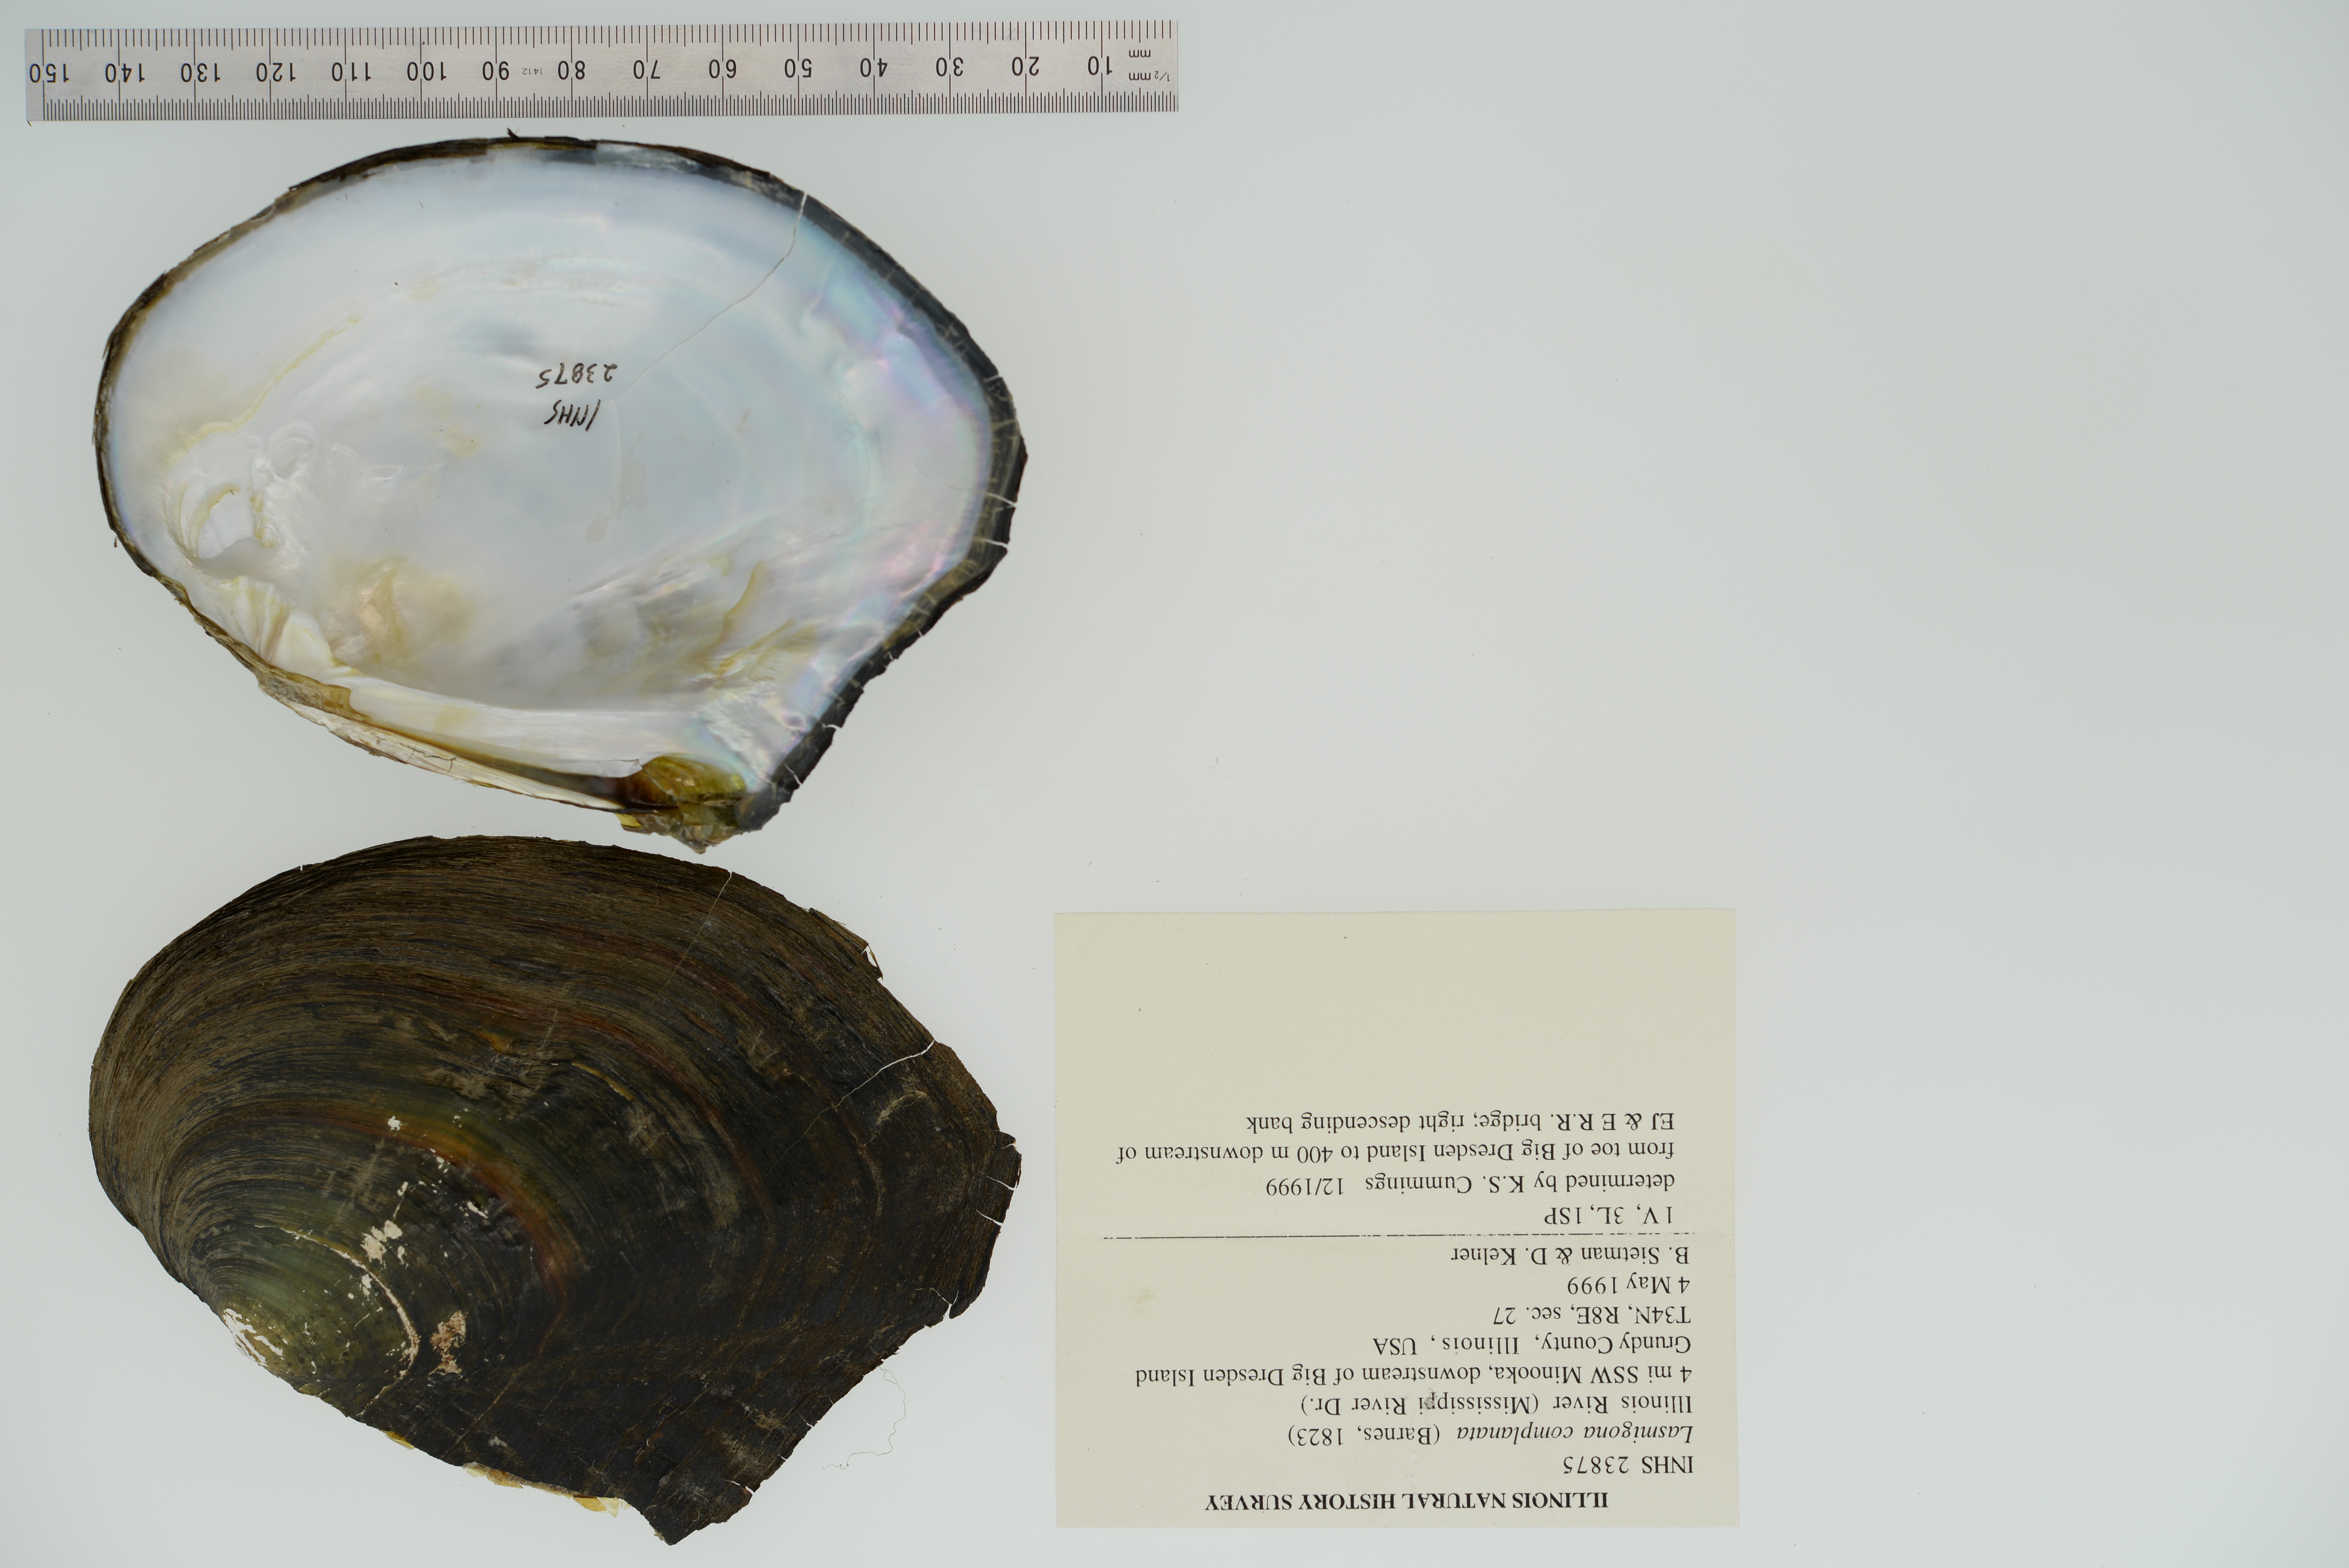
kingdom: Animalia
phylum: Mollusca
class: Bivalvia
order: Unionida
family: Unionidae
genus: Lasmigona
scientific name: Lasmigona complanata
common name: White heelsplitter
